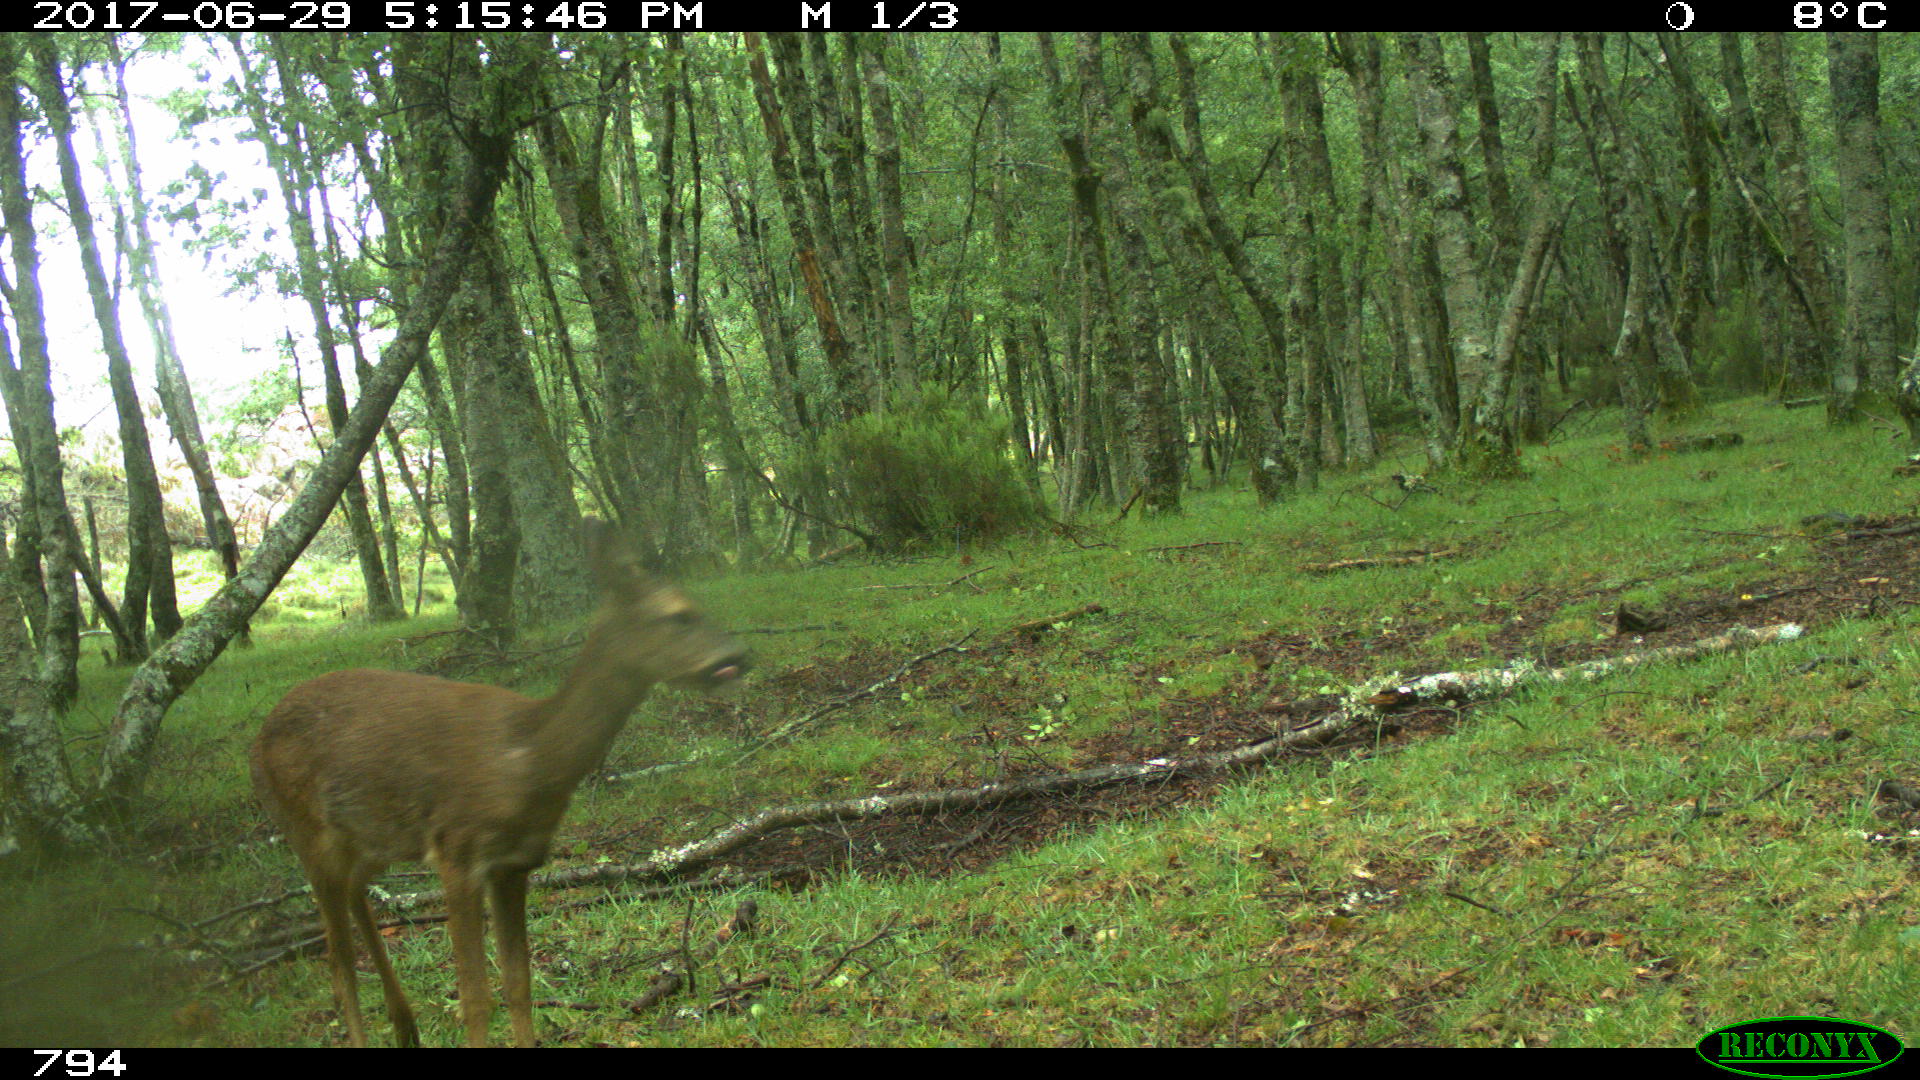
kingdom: Animalia
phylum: Chordata
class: Mammalia
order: Artiodactyla
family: Cervidae
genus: Capreolus
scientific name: Capreolus capreolus
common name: Western roe deer
